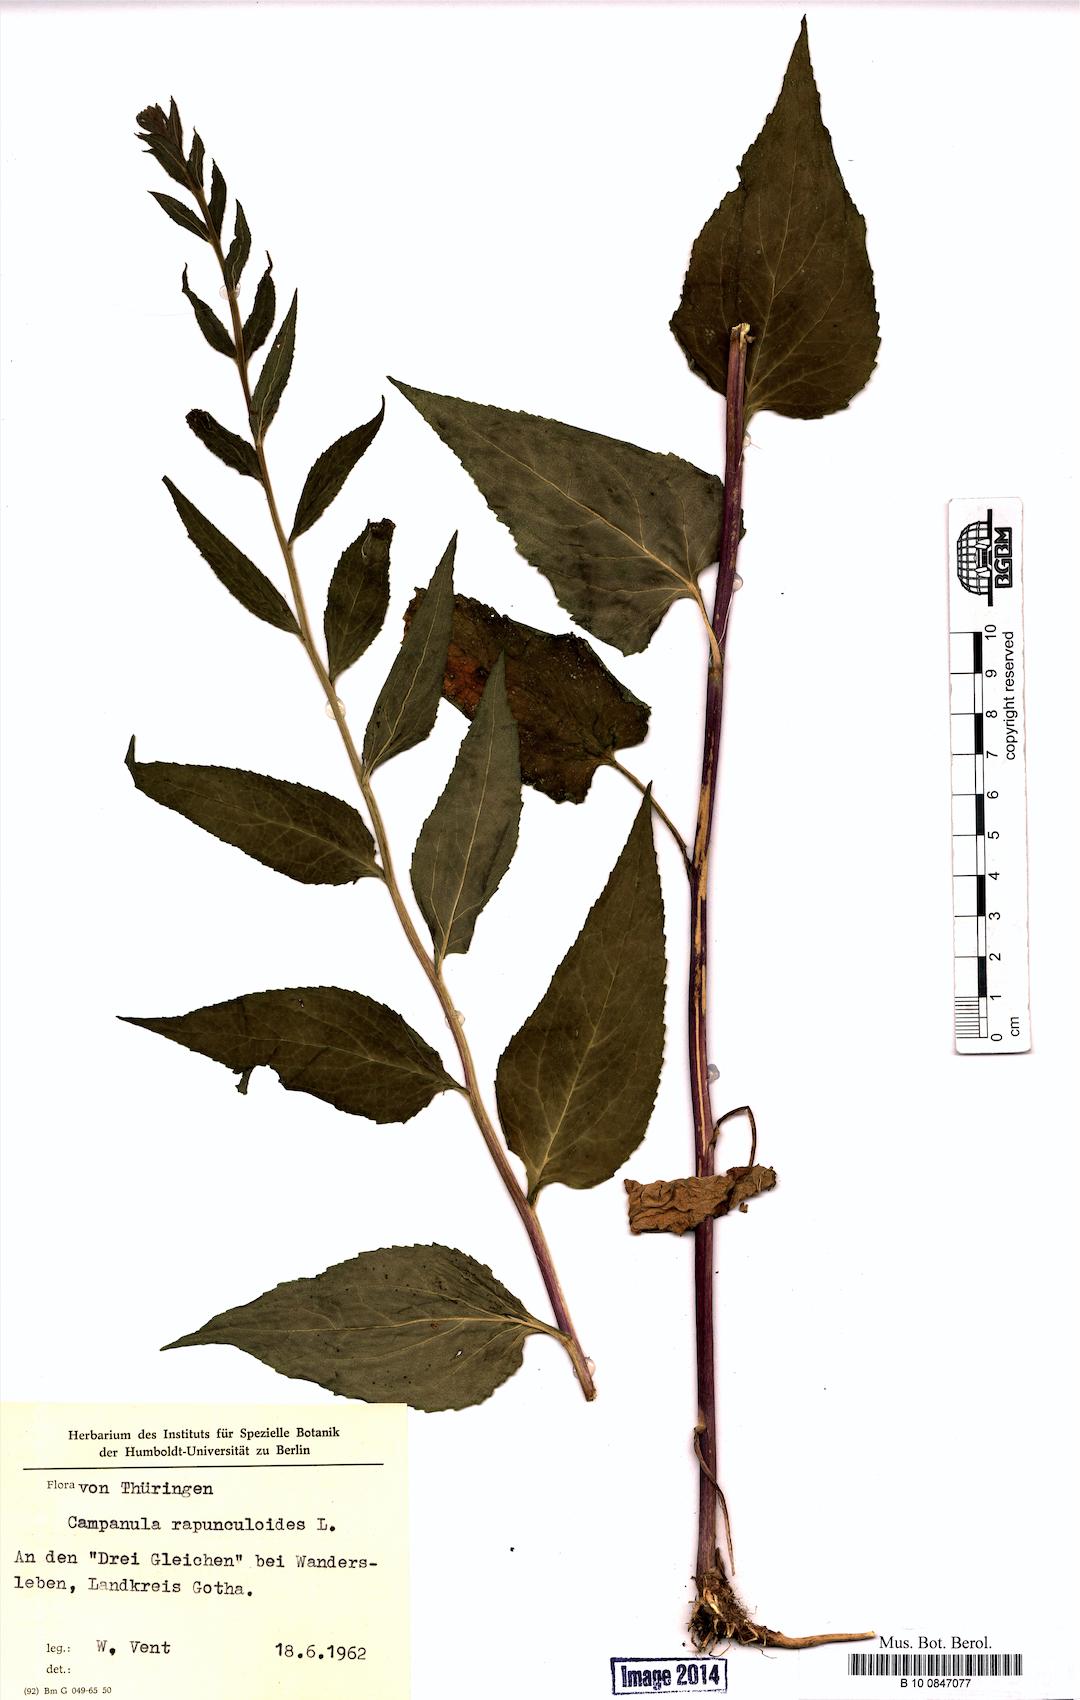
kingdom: Plantae
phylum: Tracheophyta
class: Magnoliopsida
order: Asterales
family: Campanulaceae
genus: Campanula
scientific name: Campanula rapunculoides
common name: Creeping bellflower
